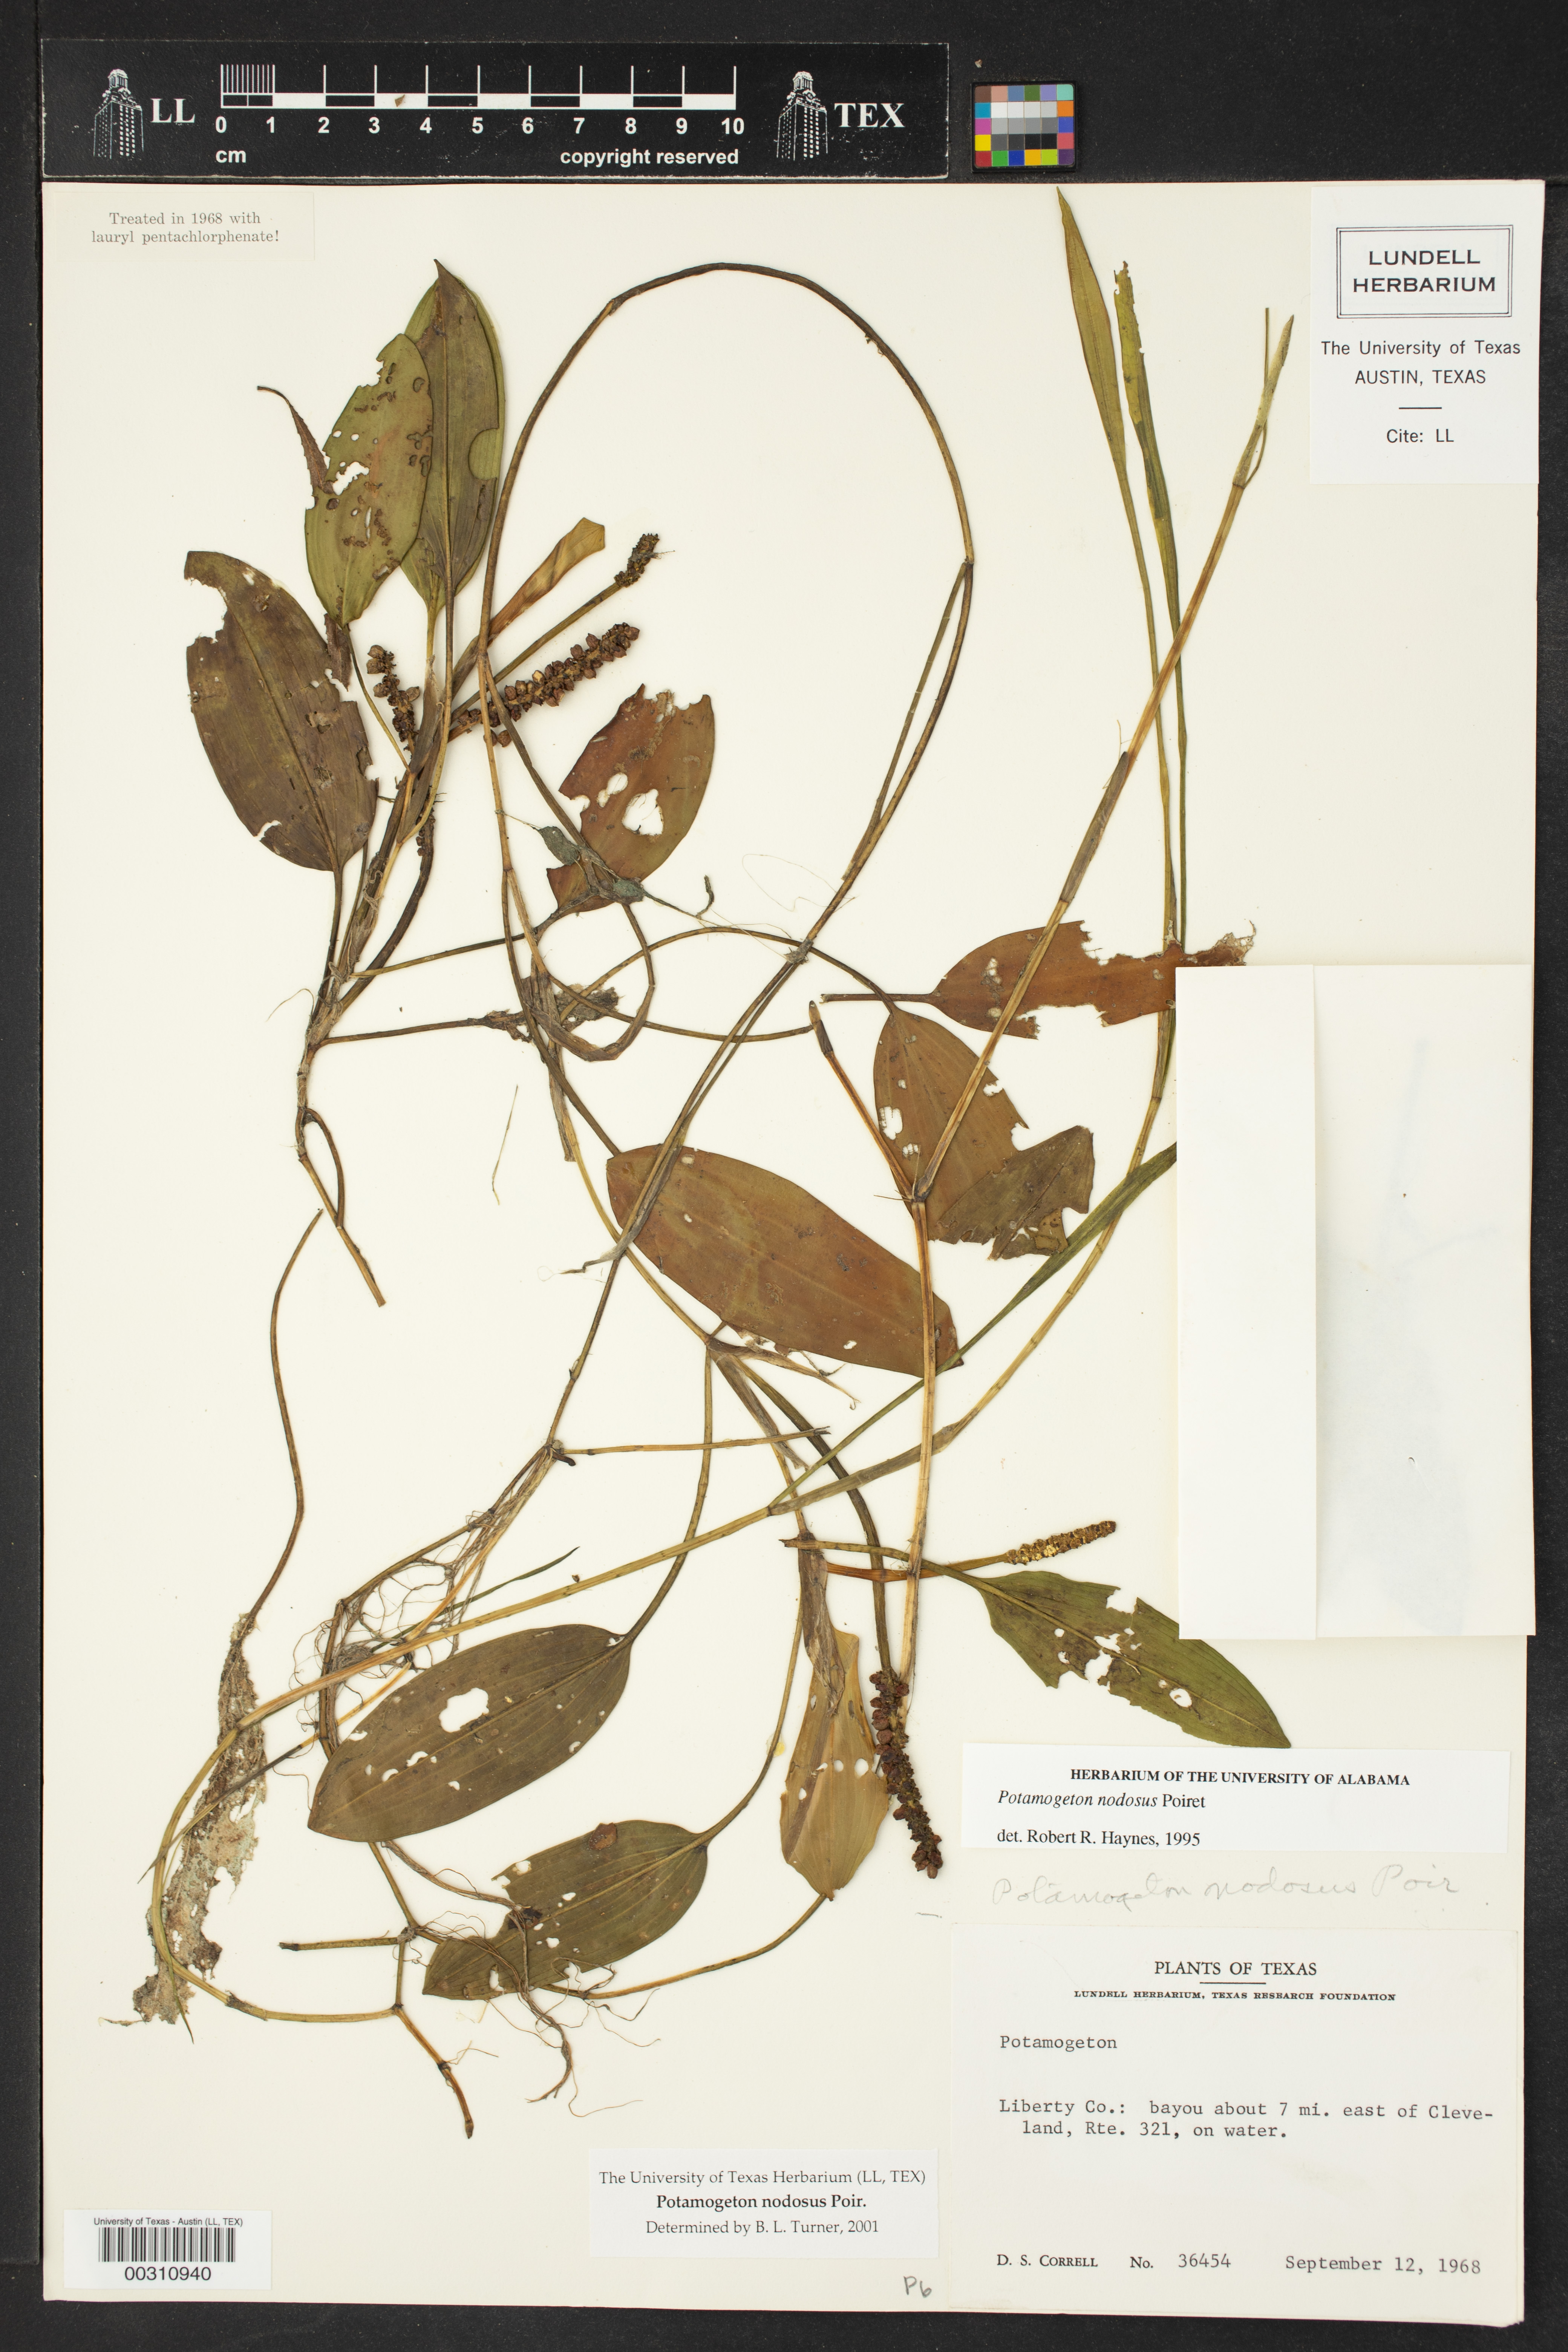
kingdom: Plantae
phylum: Tracheophyta
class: Liliopsida
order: Alismatales
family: Potamogetonaceae
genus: Potamogeton
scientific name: Potamogeton nodosus
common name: Loddon pondweed
